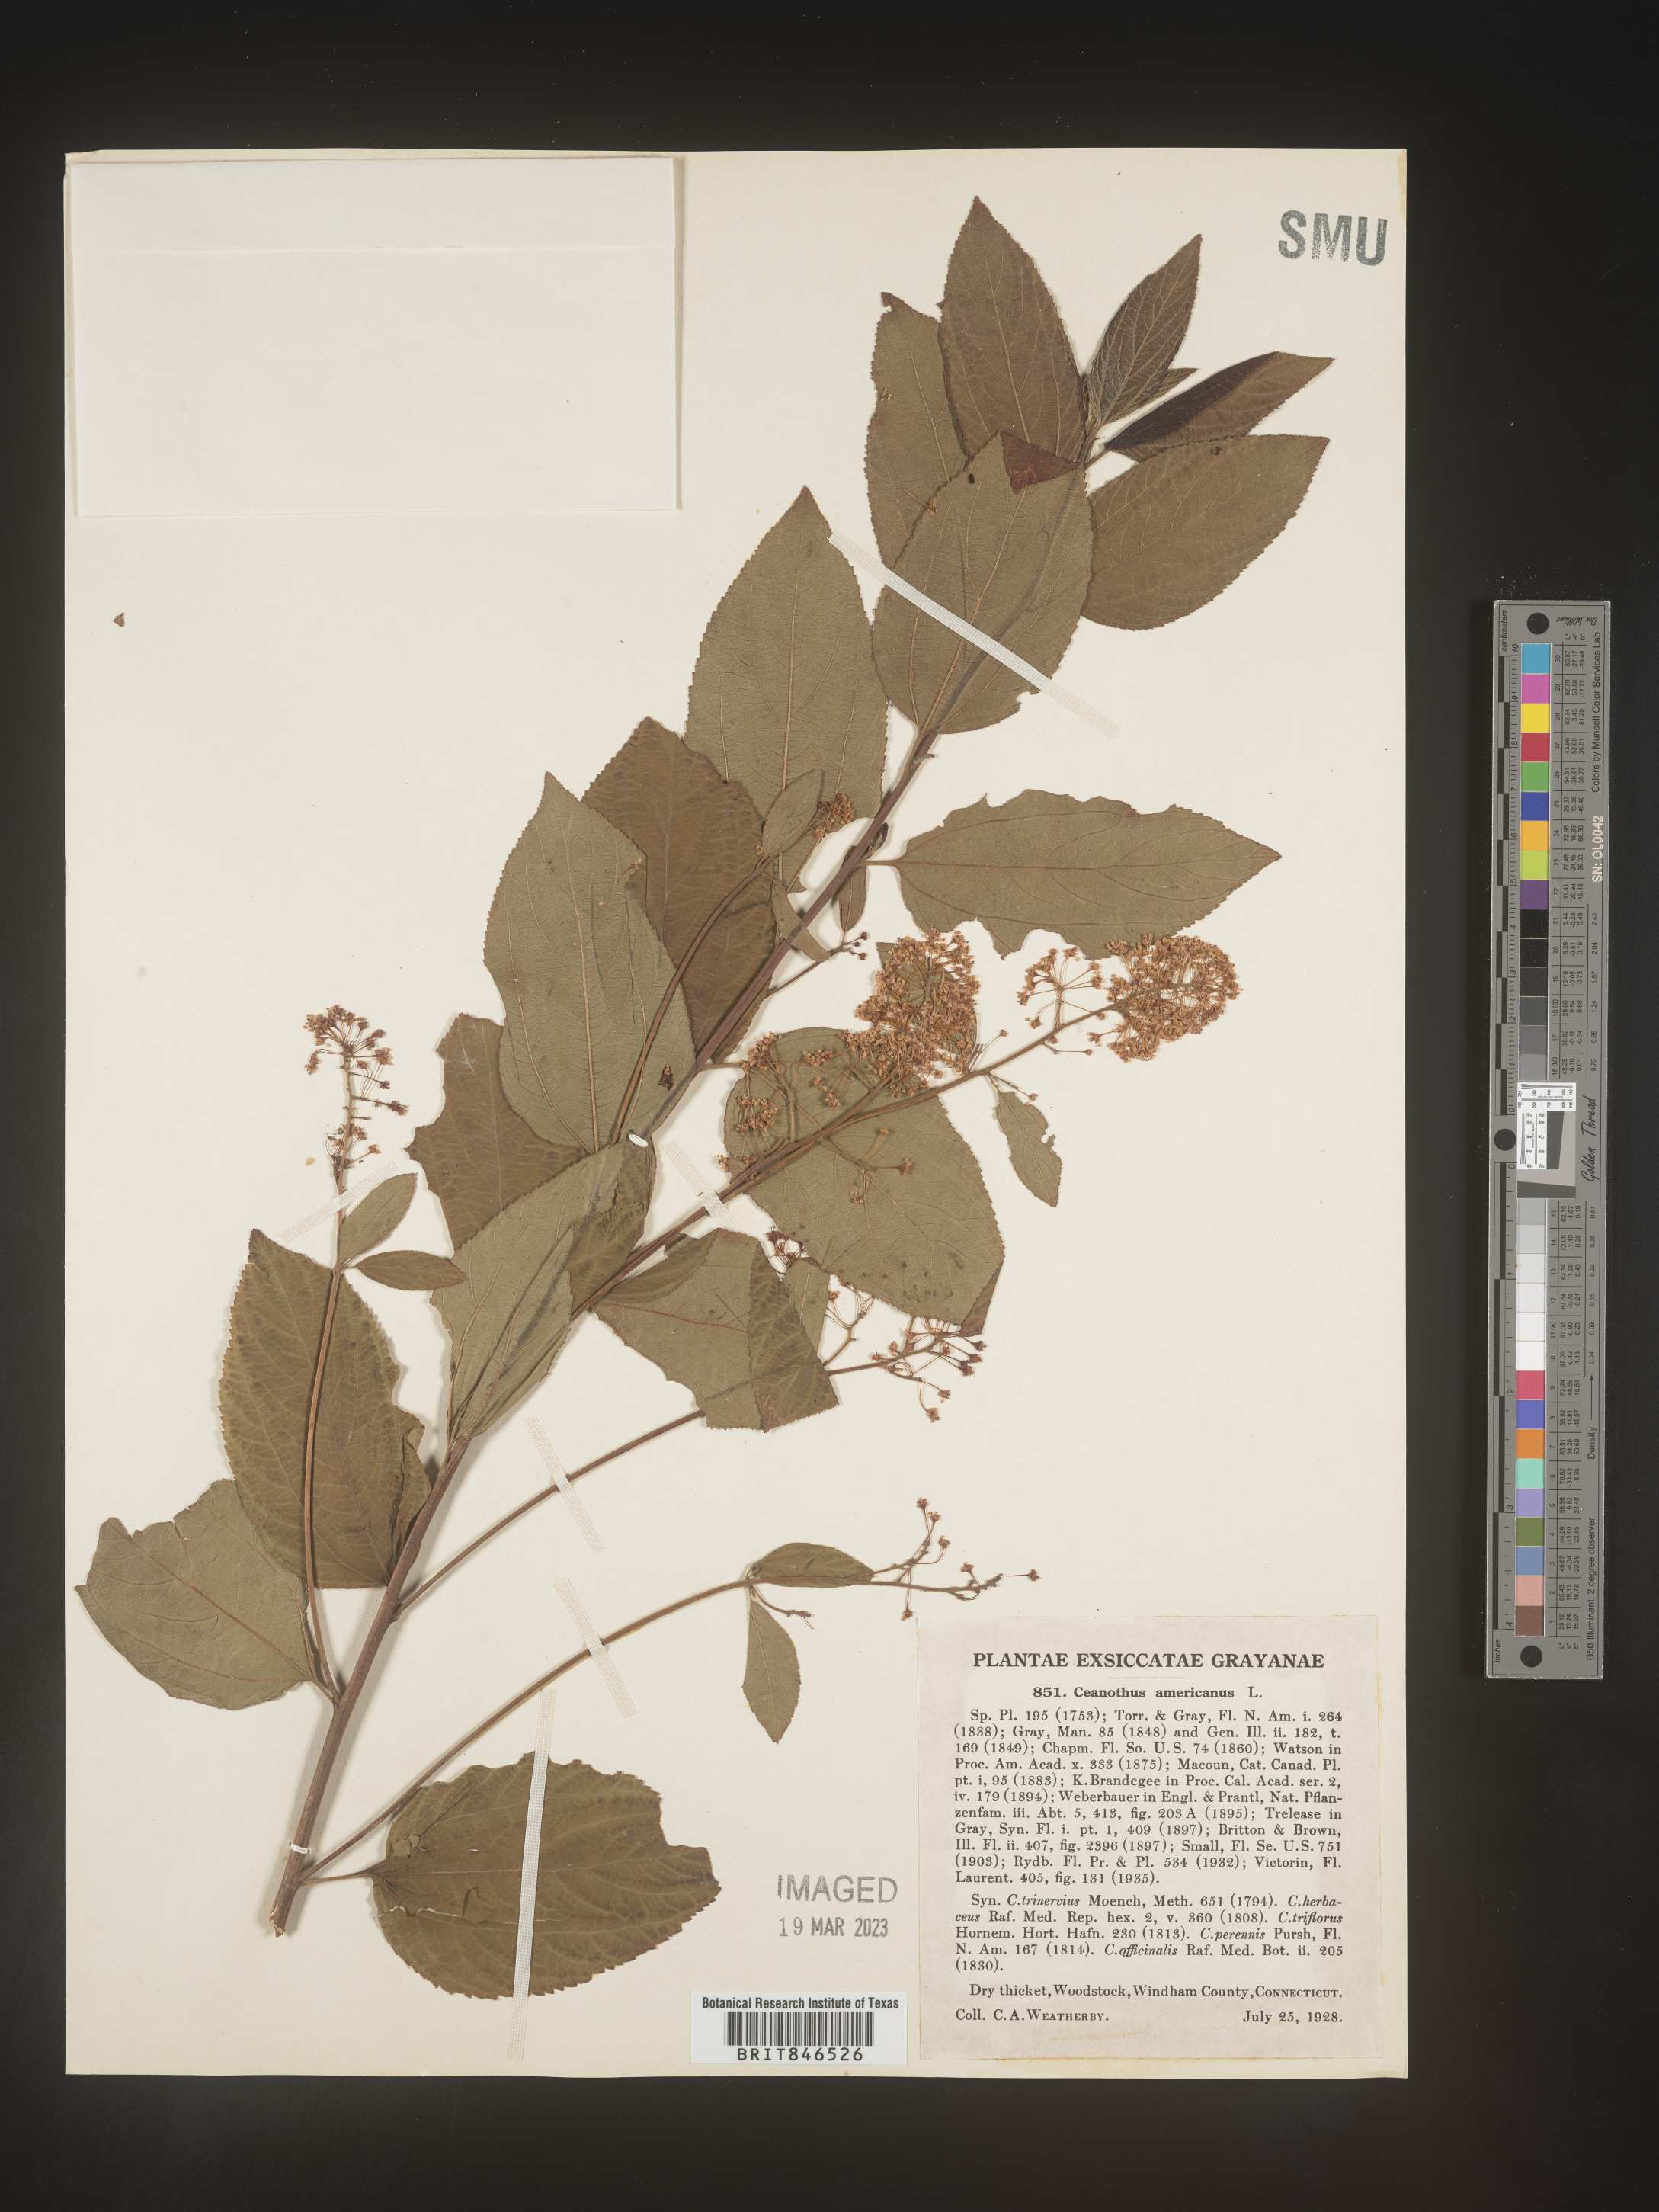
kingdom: Plantae
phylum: Tracheophyta
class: Magnoliopsida
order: Rosales
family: Rhamnaceae
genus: Ceanothus
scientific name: Ceanothus americanus
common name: Redroot
